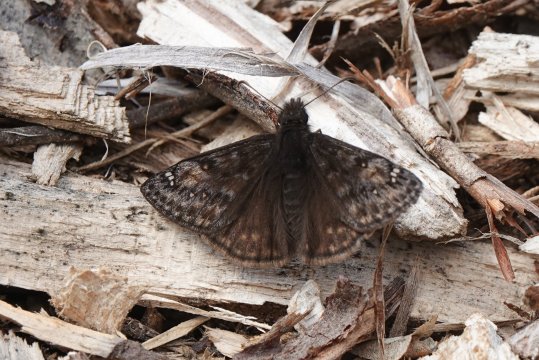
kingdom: Animalia
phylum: Arthropoda
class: Insecta
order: Lepidoptera
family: Hesperiidae
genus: Gesta
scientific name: Gesta
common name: Juvenal's Duskywing
